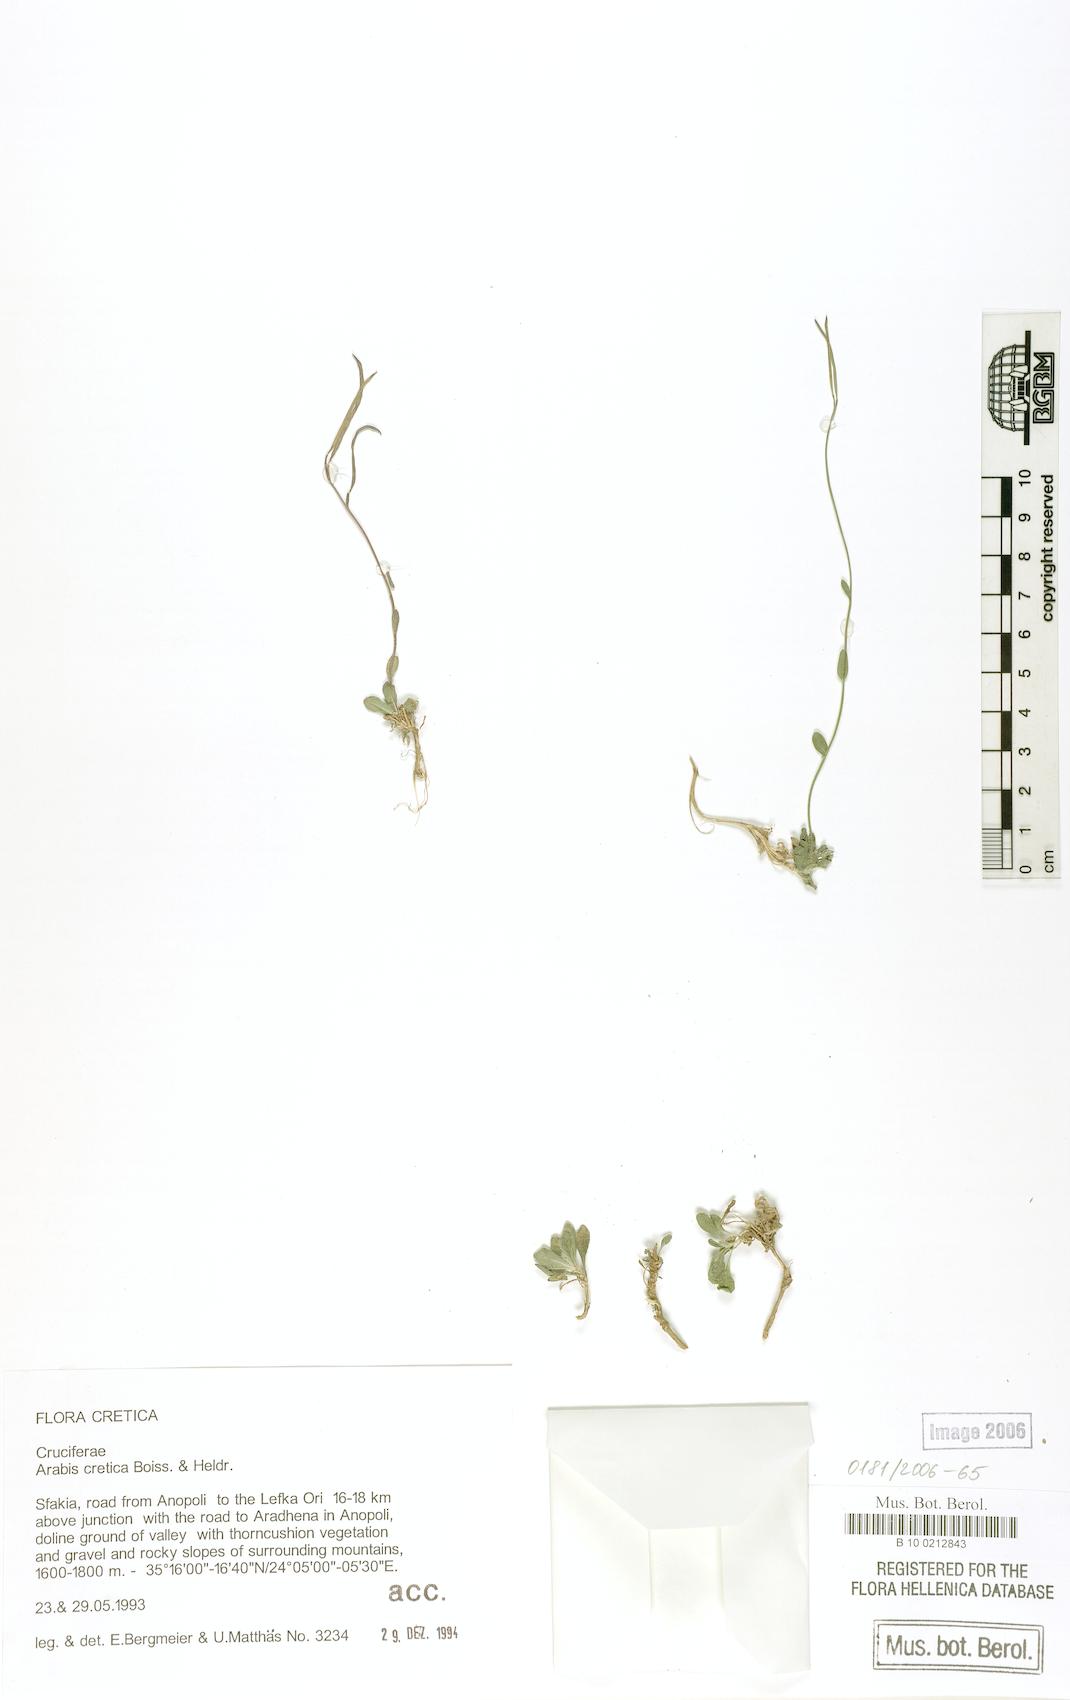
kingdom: Plantae
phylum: Tracheophyta
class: Magnoliopsida
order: Brassicales
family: Brassicaceae
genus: Arabis
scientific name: Arabis cretica
